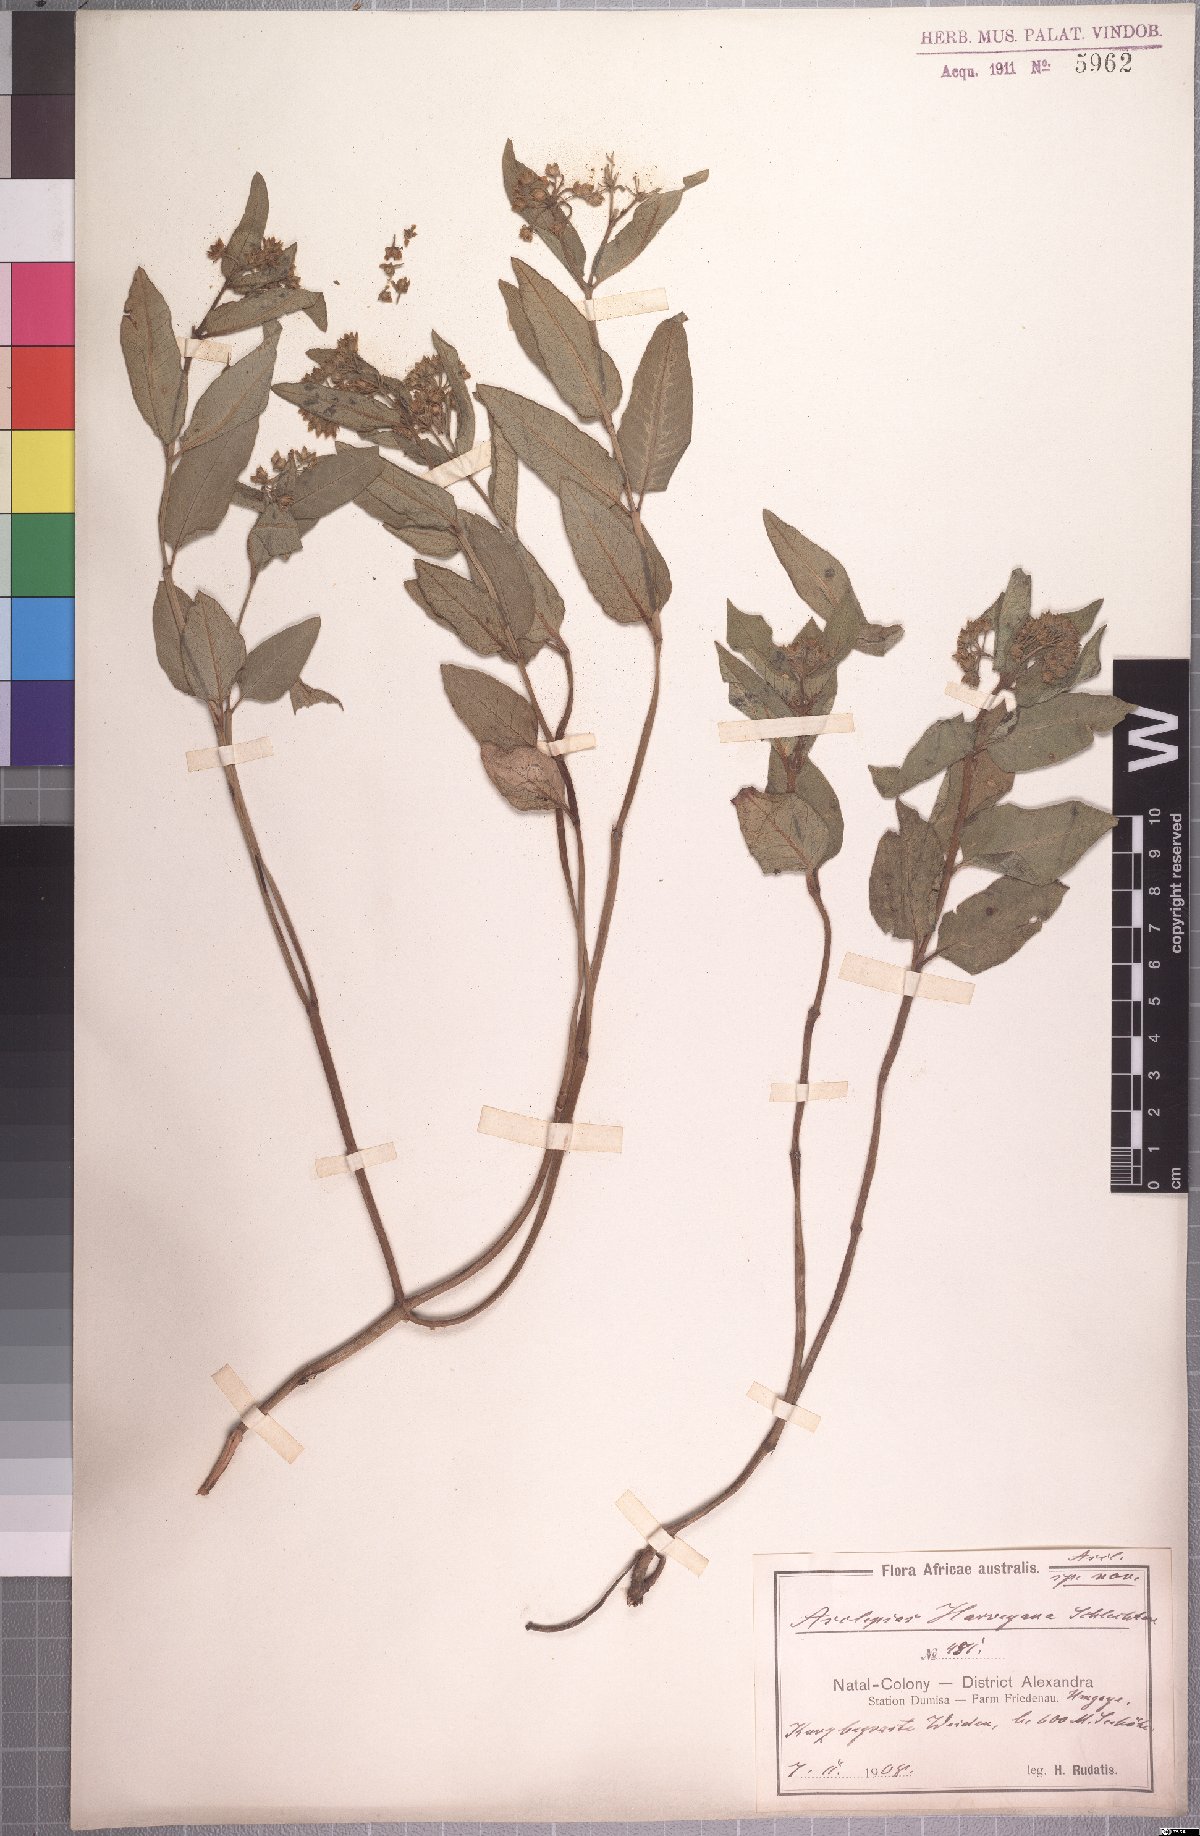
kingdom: Plantae
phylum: Tracheophyta
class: Magnoliopsida
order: Gentianales
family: Apocynaceae
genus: Xysmalobium
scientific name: Xysmalobium prunelloides
